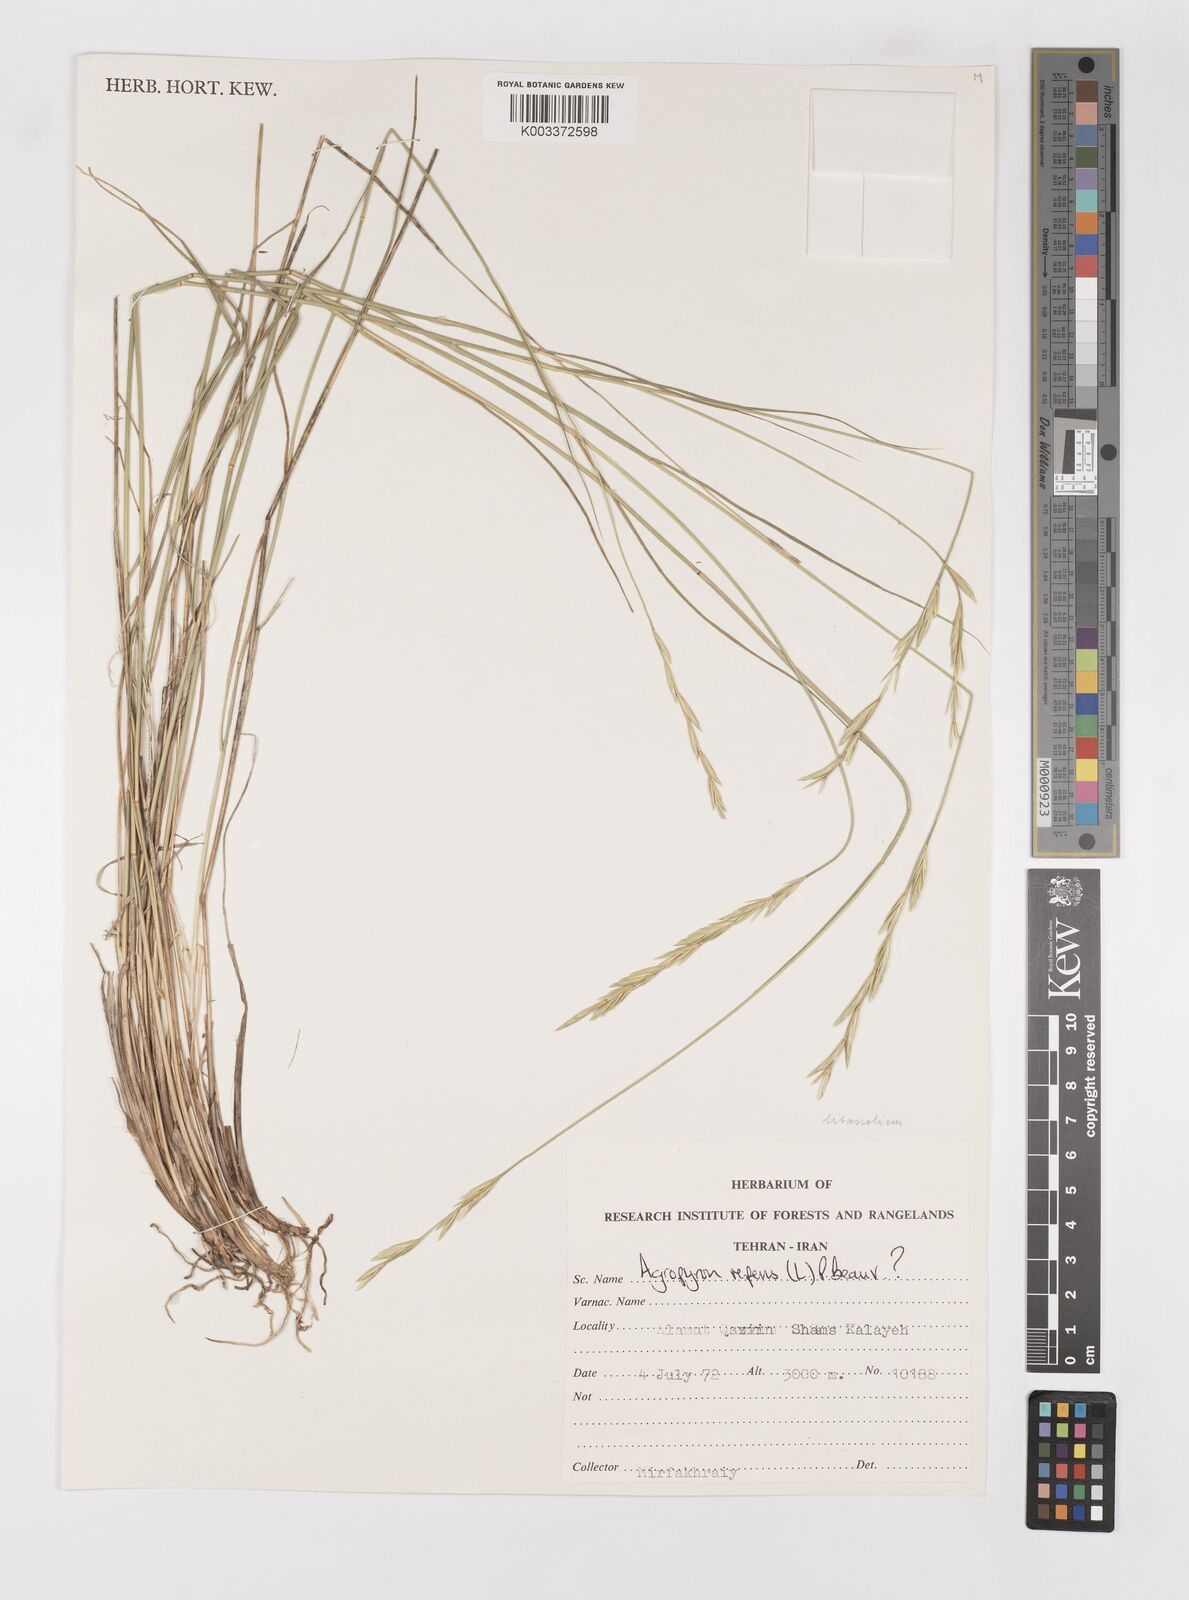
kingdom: Plantae
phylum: Tracheophyta
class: Liliopsida
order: Poales
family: Poaceae
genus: Elymus
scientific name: Elymus
